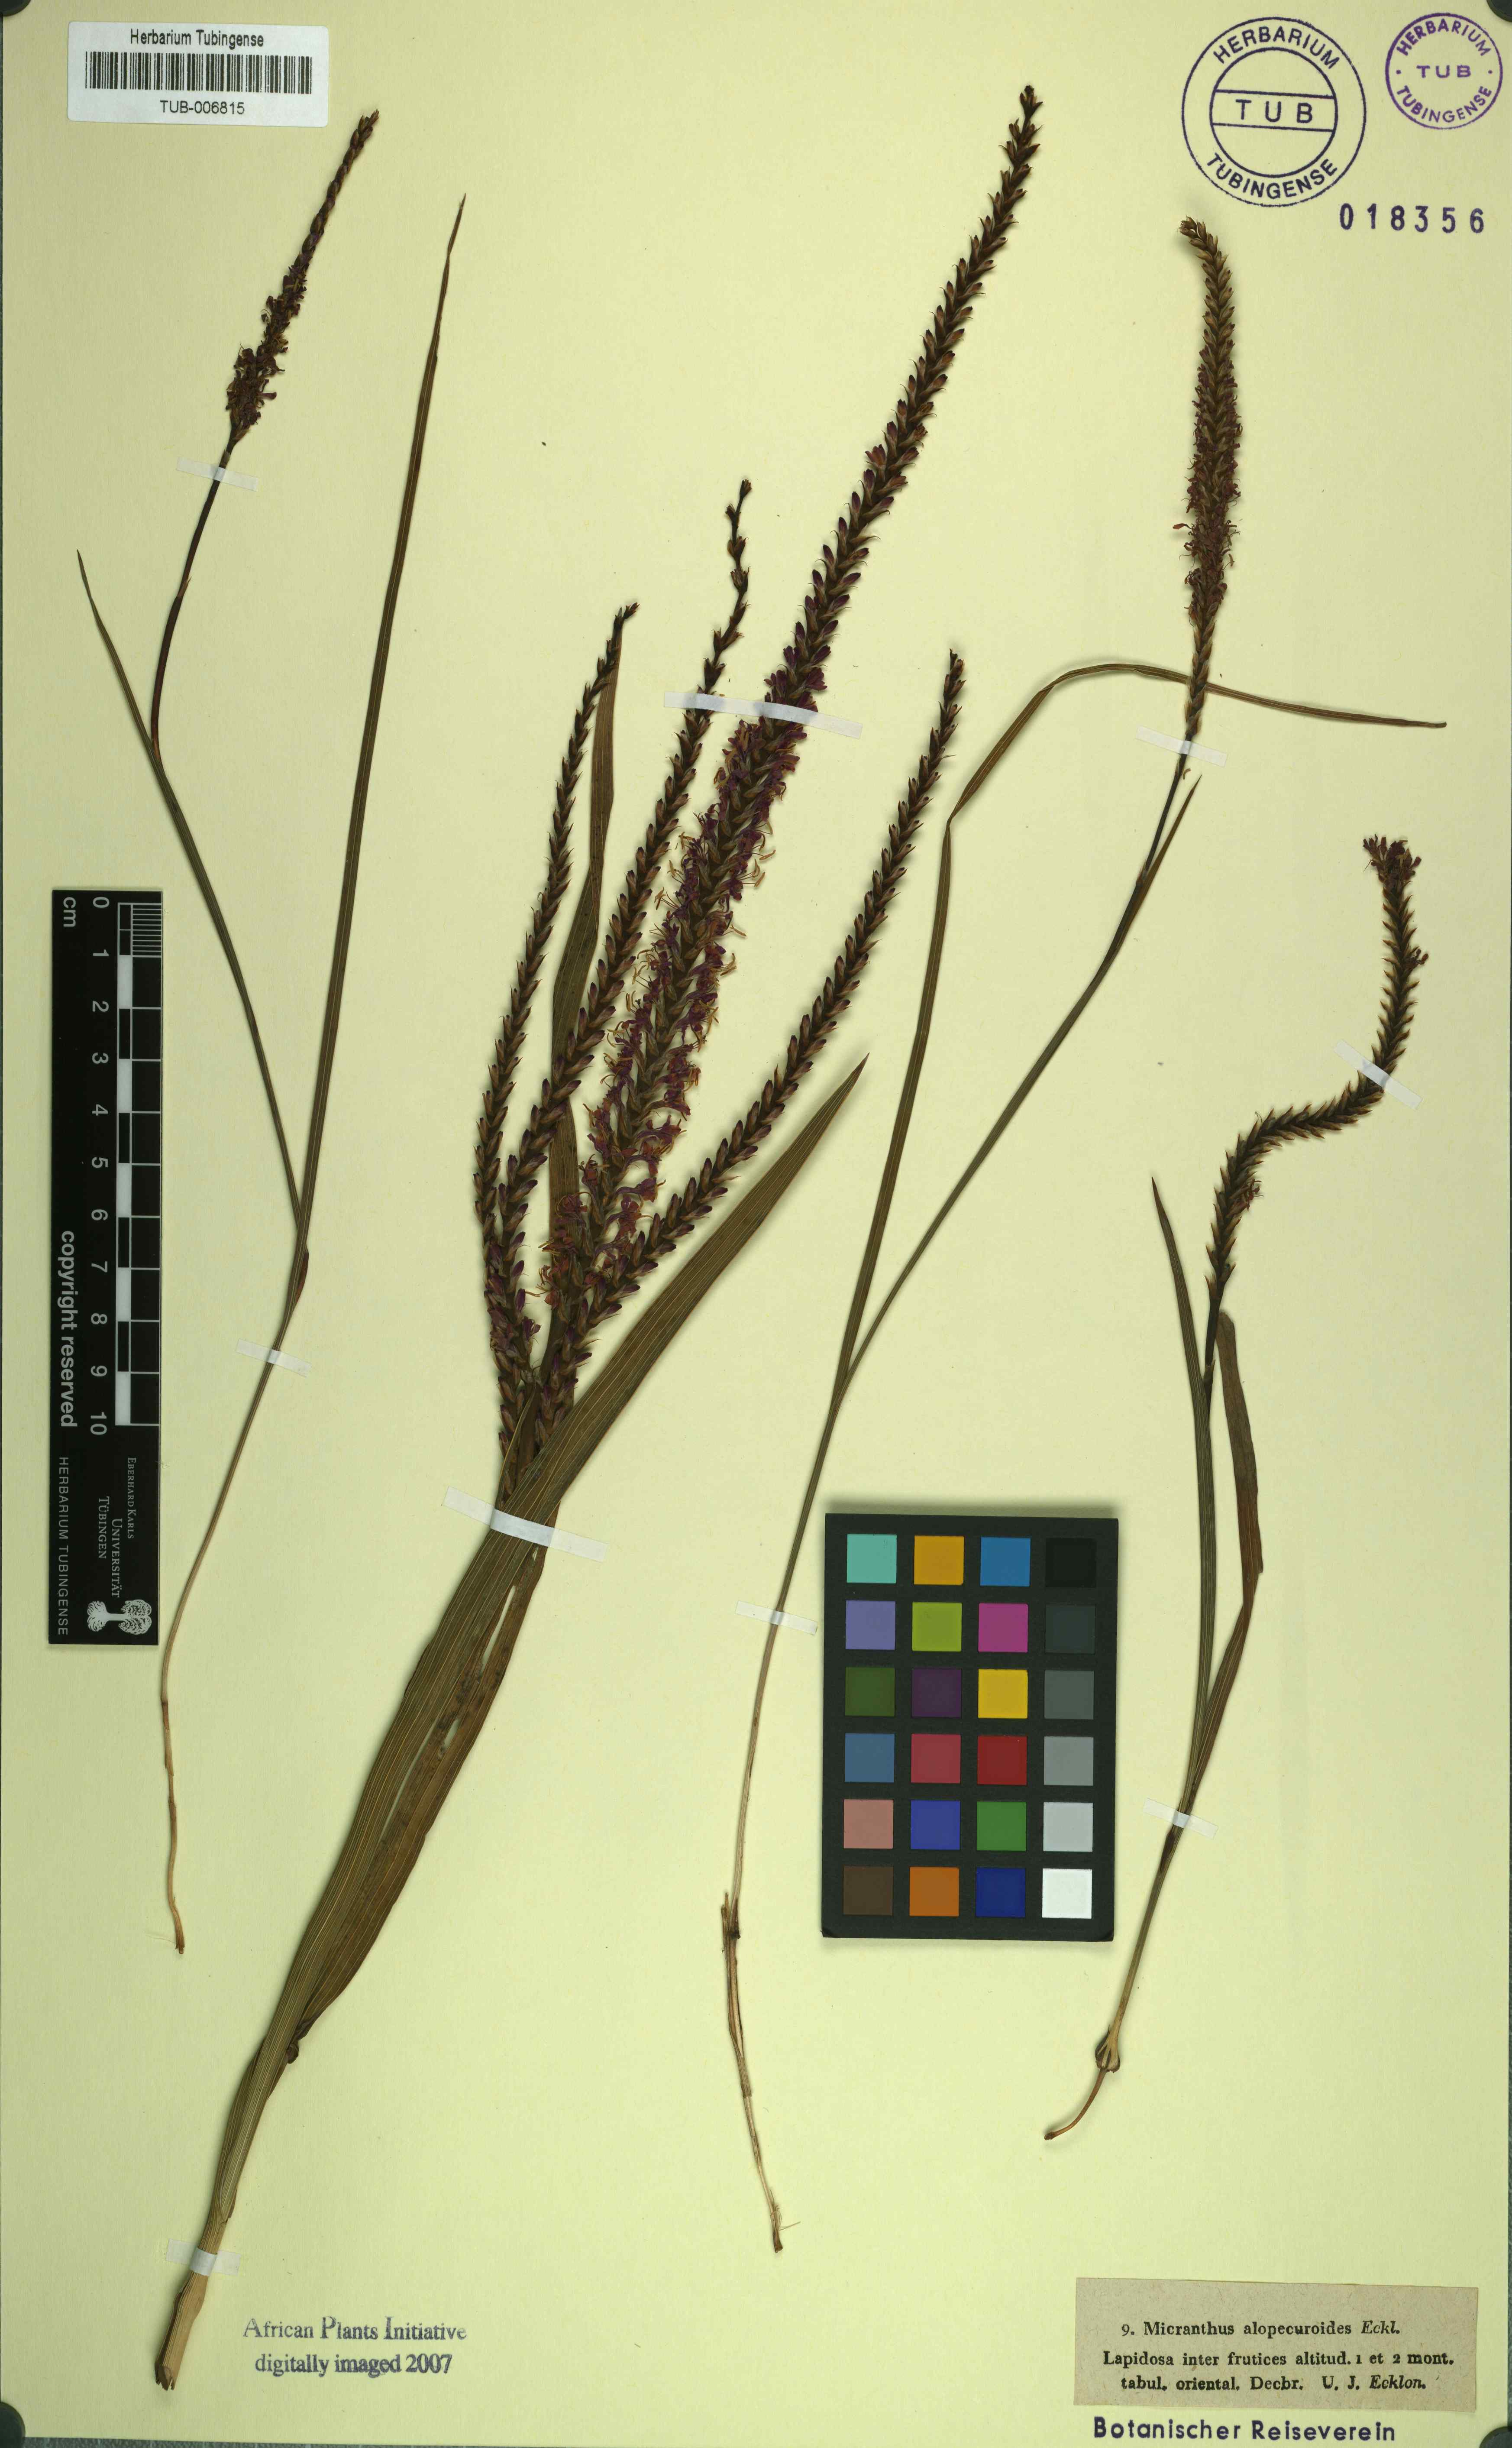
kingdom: Plantae
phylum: Tracheophyta
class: Liliopsida
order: Asparagales
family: Iridaceae
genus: Micranthus
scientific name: Micranthus alopecuroideus
